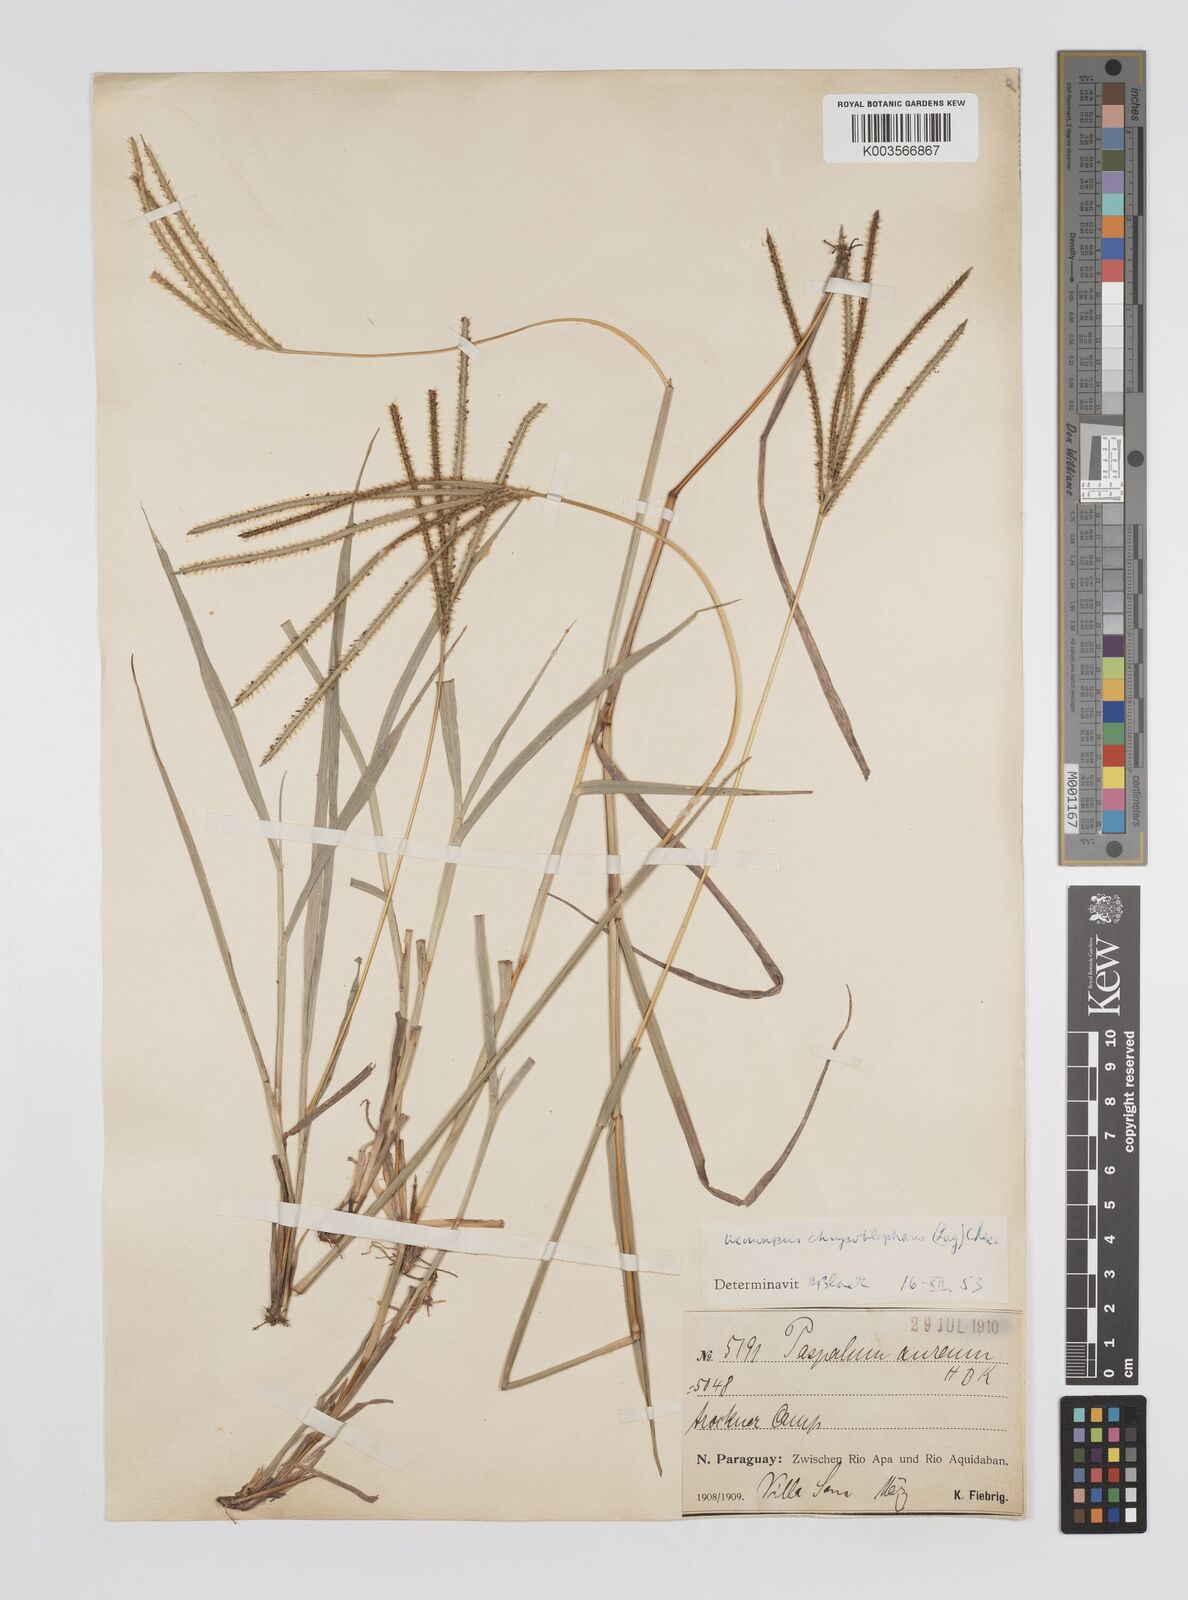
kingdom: Plantae
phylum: Tracheophyta
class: Liliopsida
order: Poales
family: Poaceae
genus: Axonopus
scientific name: Axonopus chrysoblepharis
